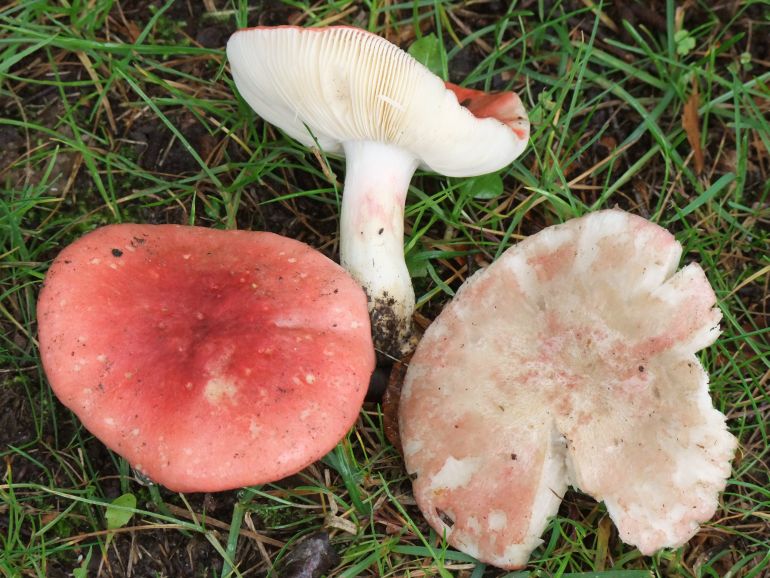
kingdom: Fungi
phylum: Basidiomycota
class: Agaricomycetes
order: Russulales
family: Russulaceae
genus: Russula
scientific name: Russula depallens
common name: falmende skørhat
